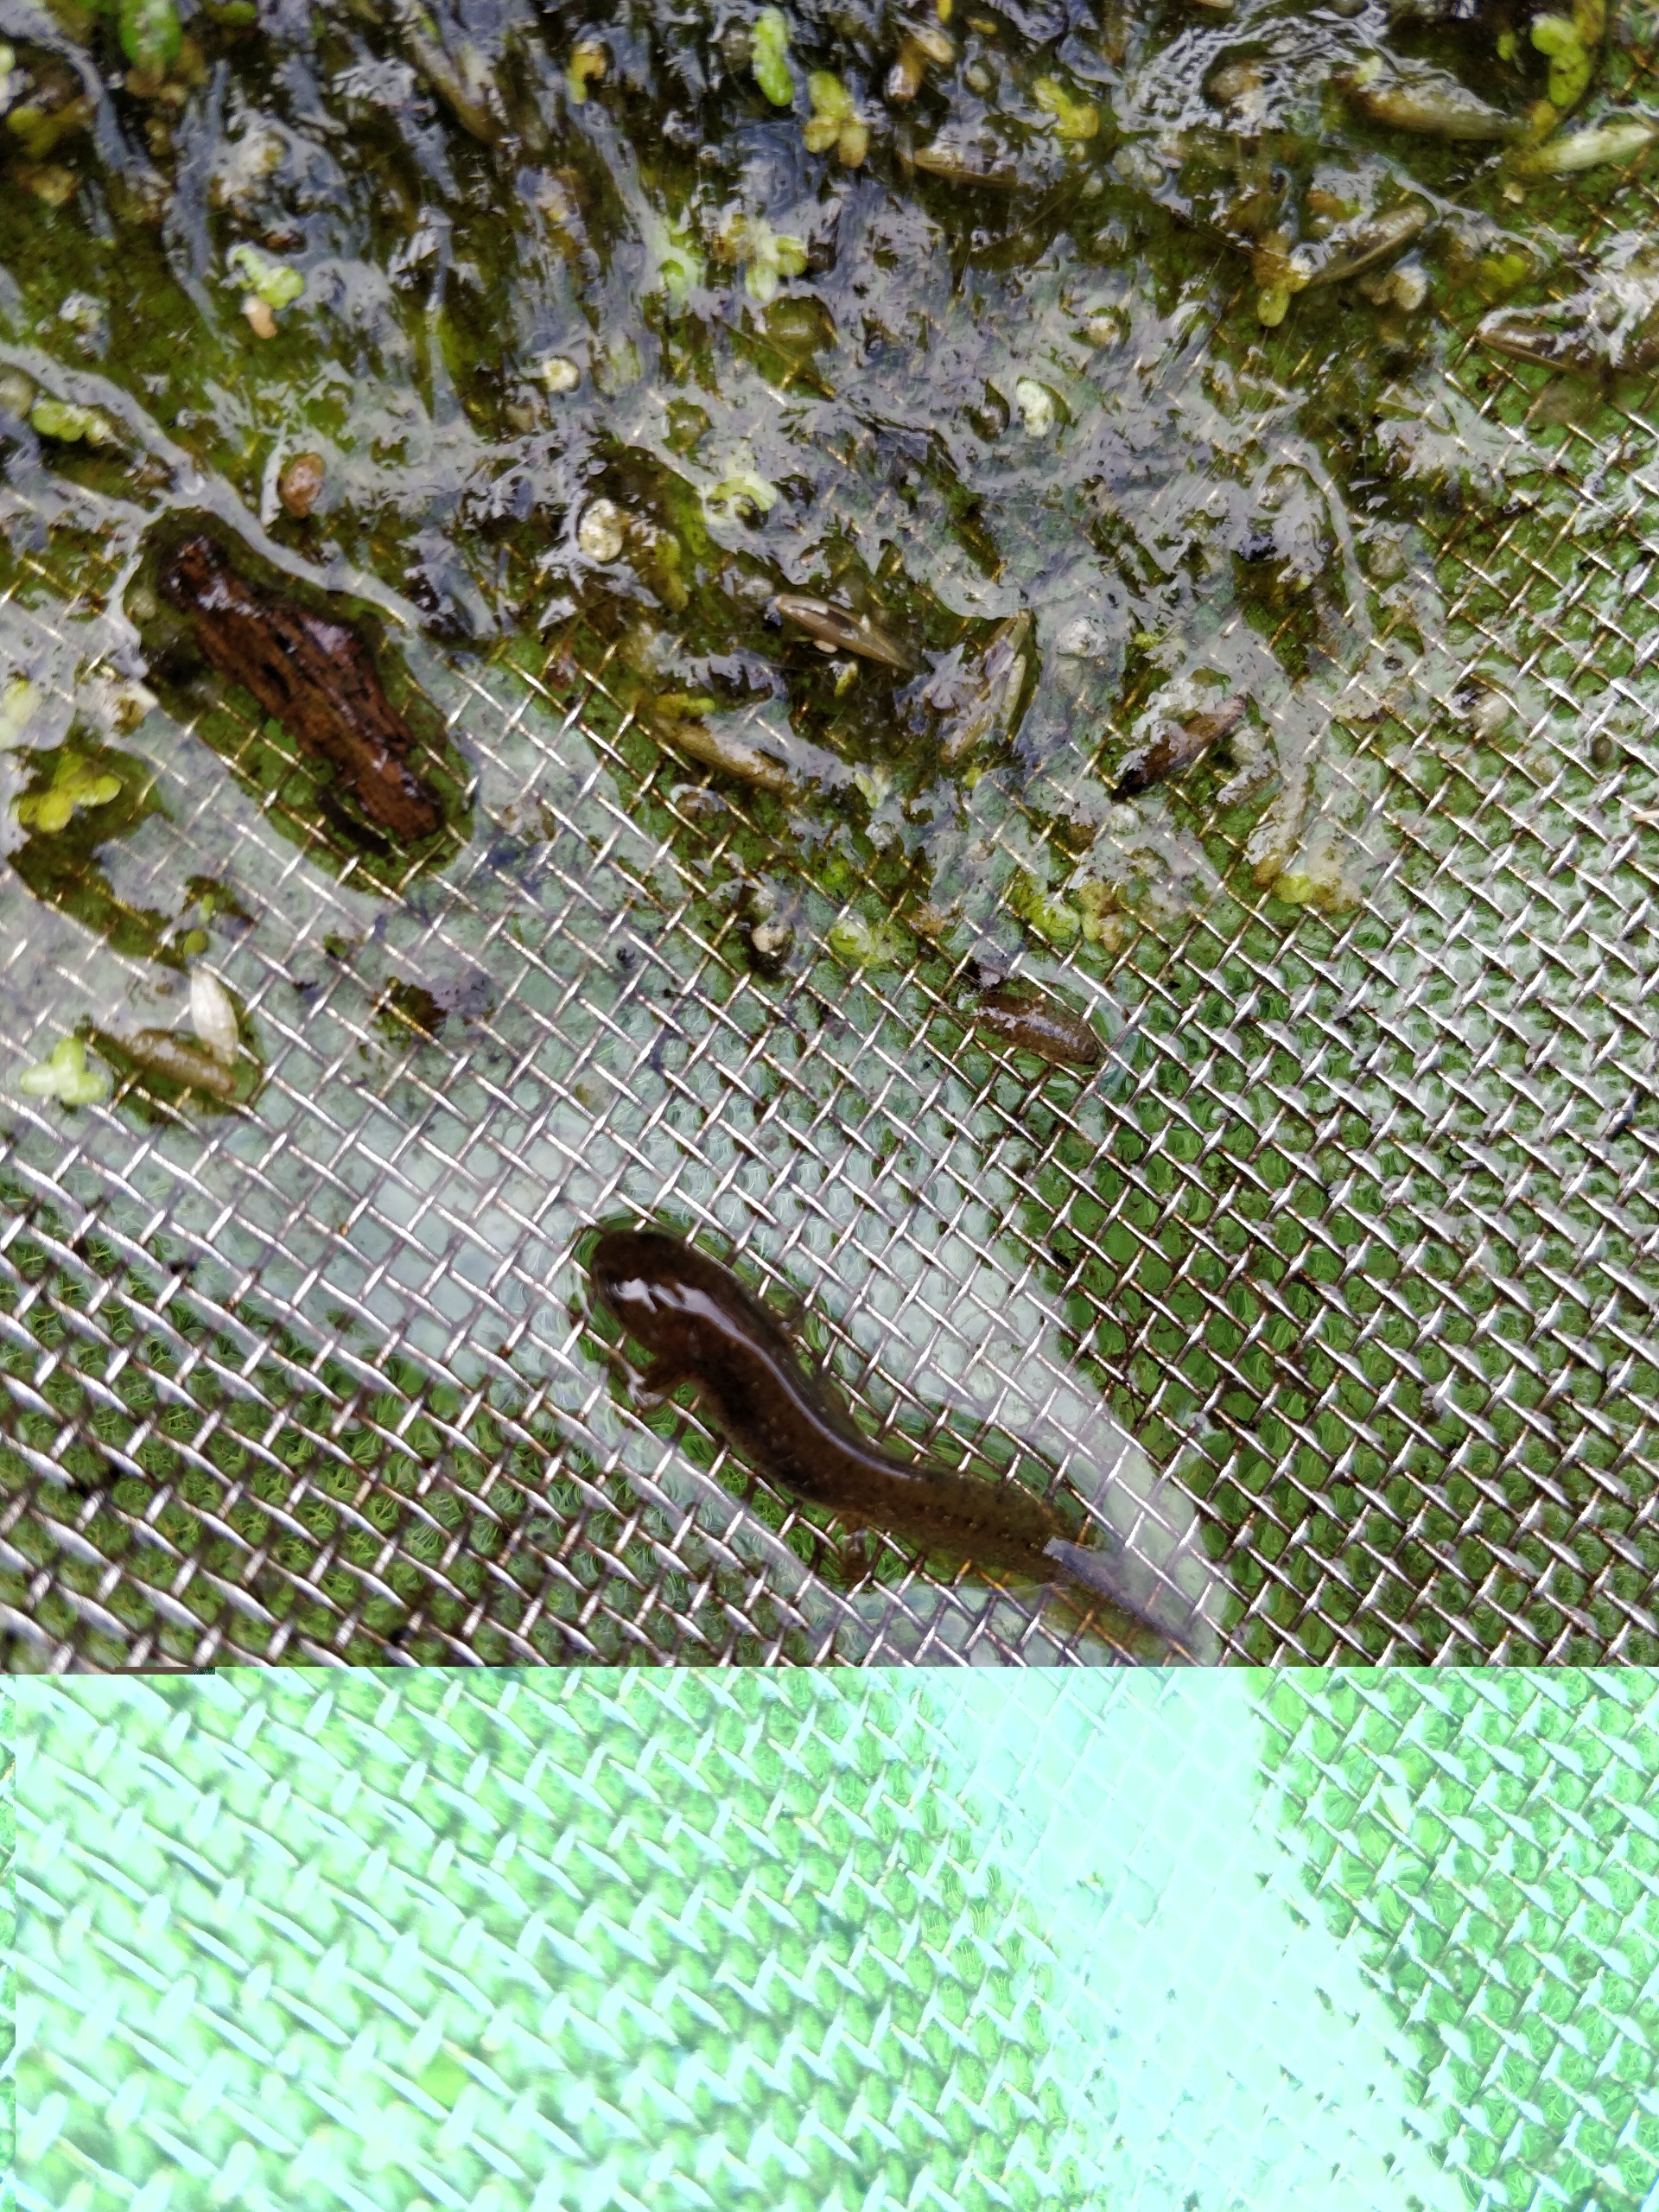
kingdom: Animalia
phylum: Chordata
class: Amphibia
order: Caudata
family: Salamandridae
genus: Lissotriton
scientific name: Lissotriton vulgaris
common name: Lille vandsalamander
